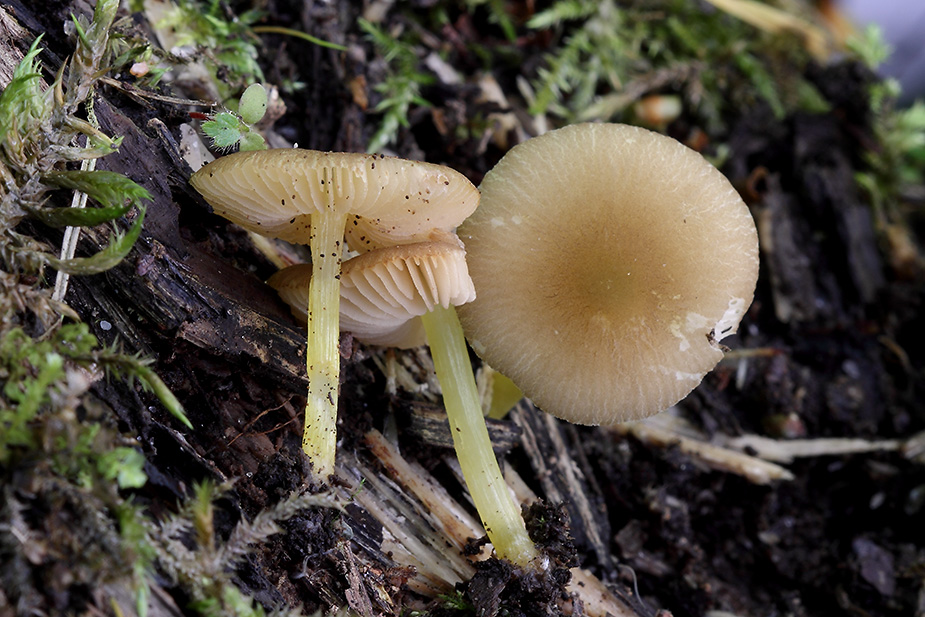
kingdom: Fungi
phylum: Basidiomycota
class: Agaricomycetes
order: Agaricales
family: Pluteaceae
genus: Pluteus
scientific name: Pluteus romellii
